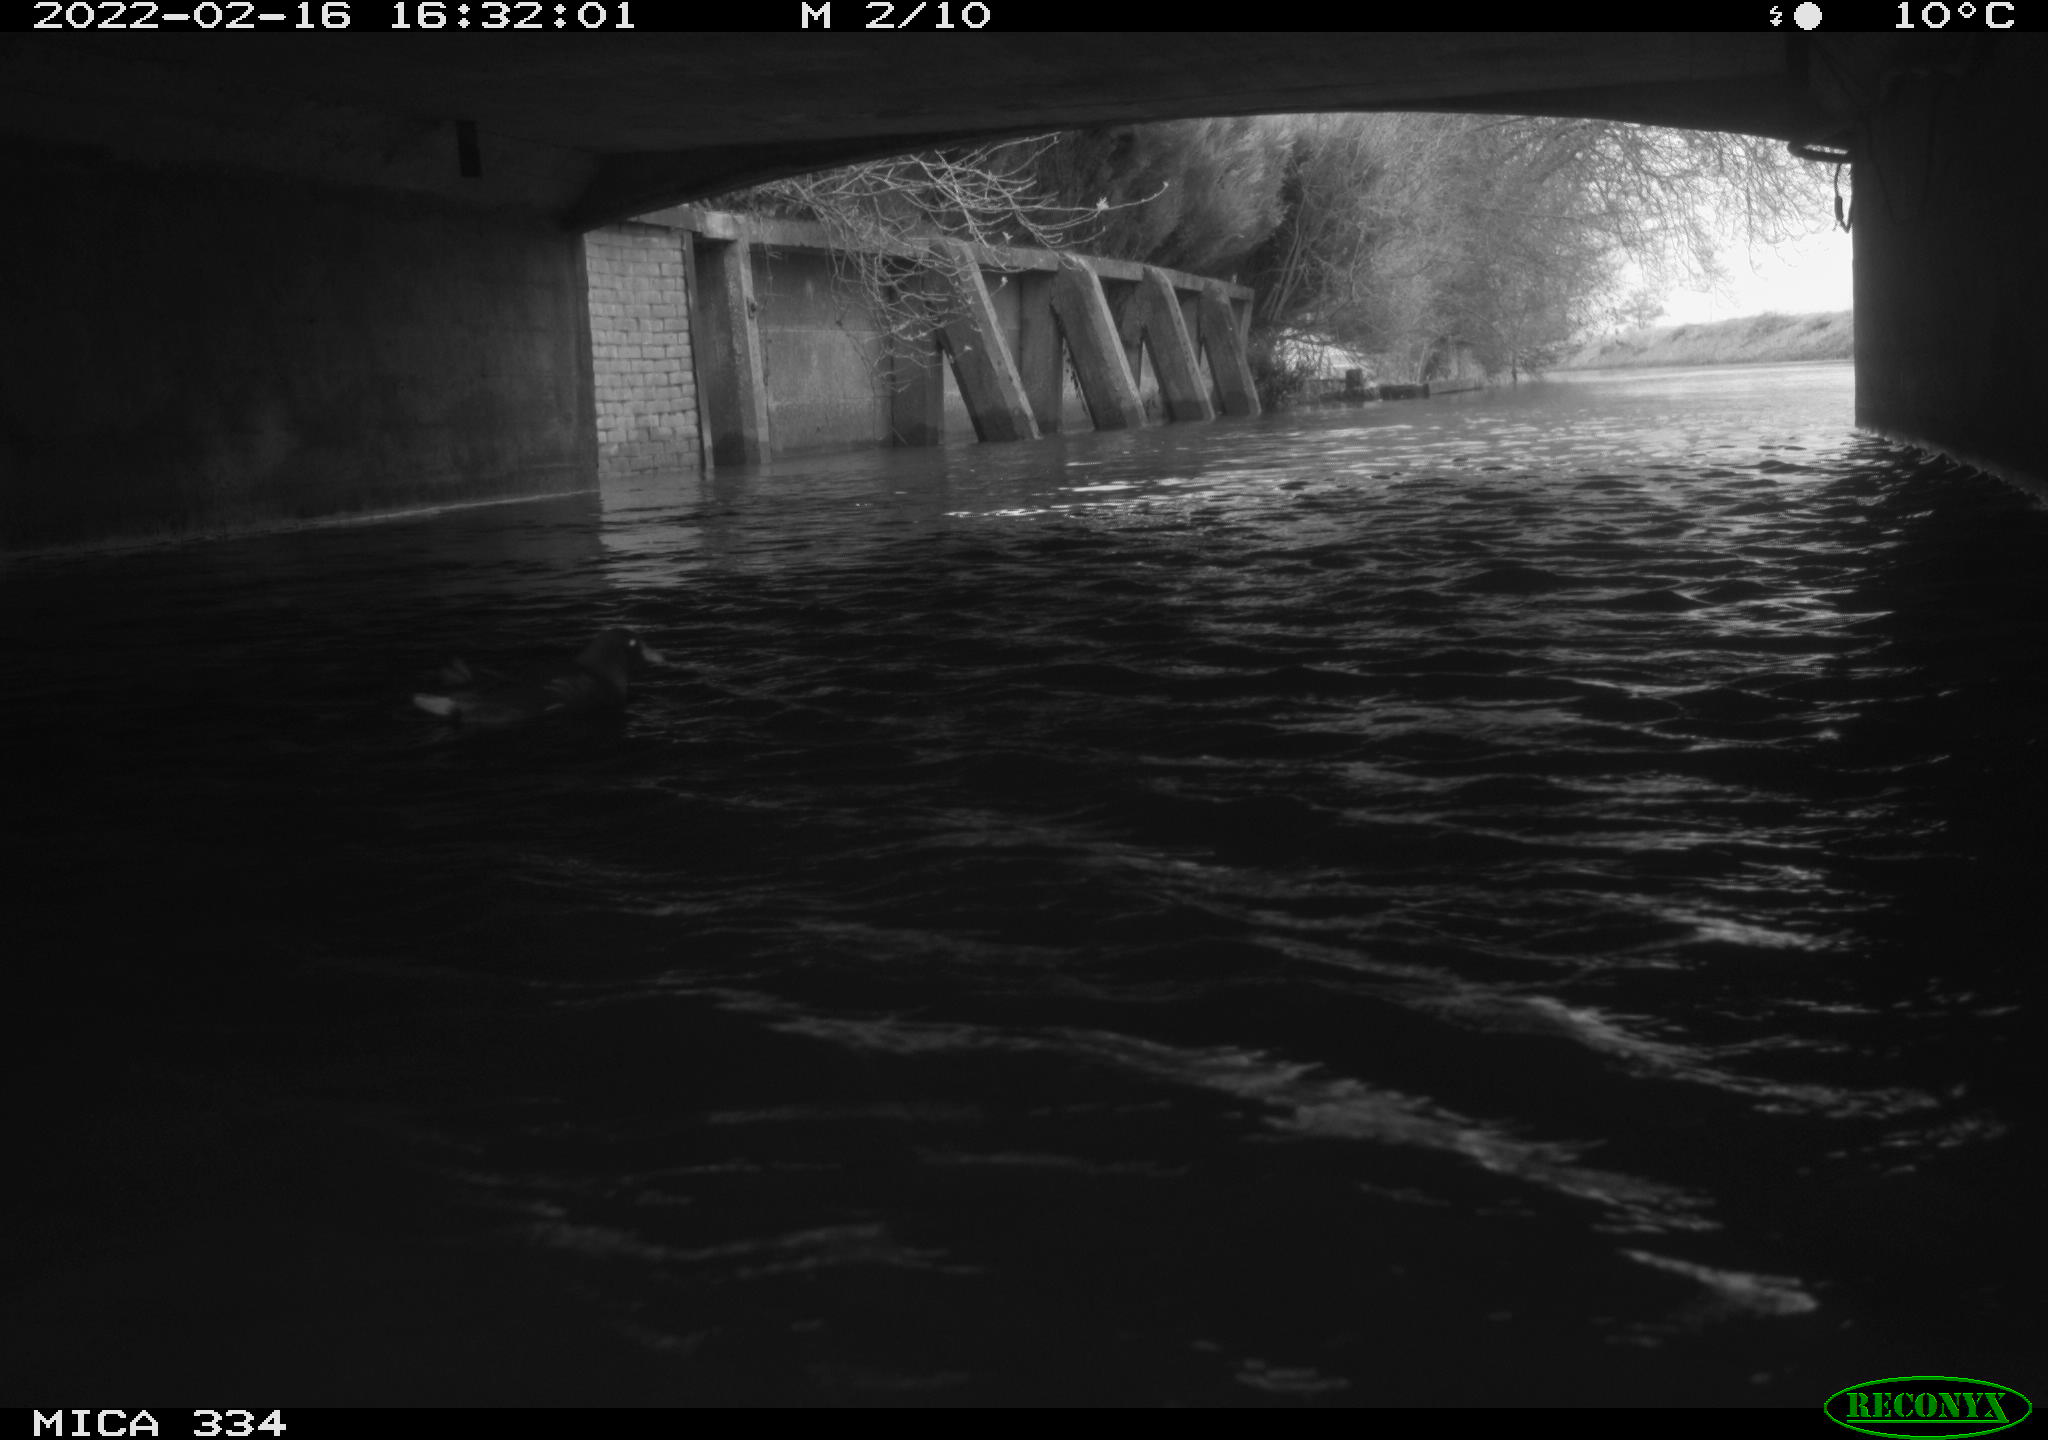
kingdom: Animalia
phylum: Chordata
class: Aves
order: Anseriformes
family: Anatidae
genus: Anas
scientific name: Anas platyrhynchos
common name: Mallard
